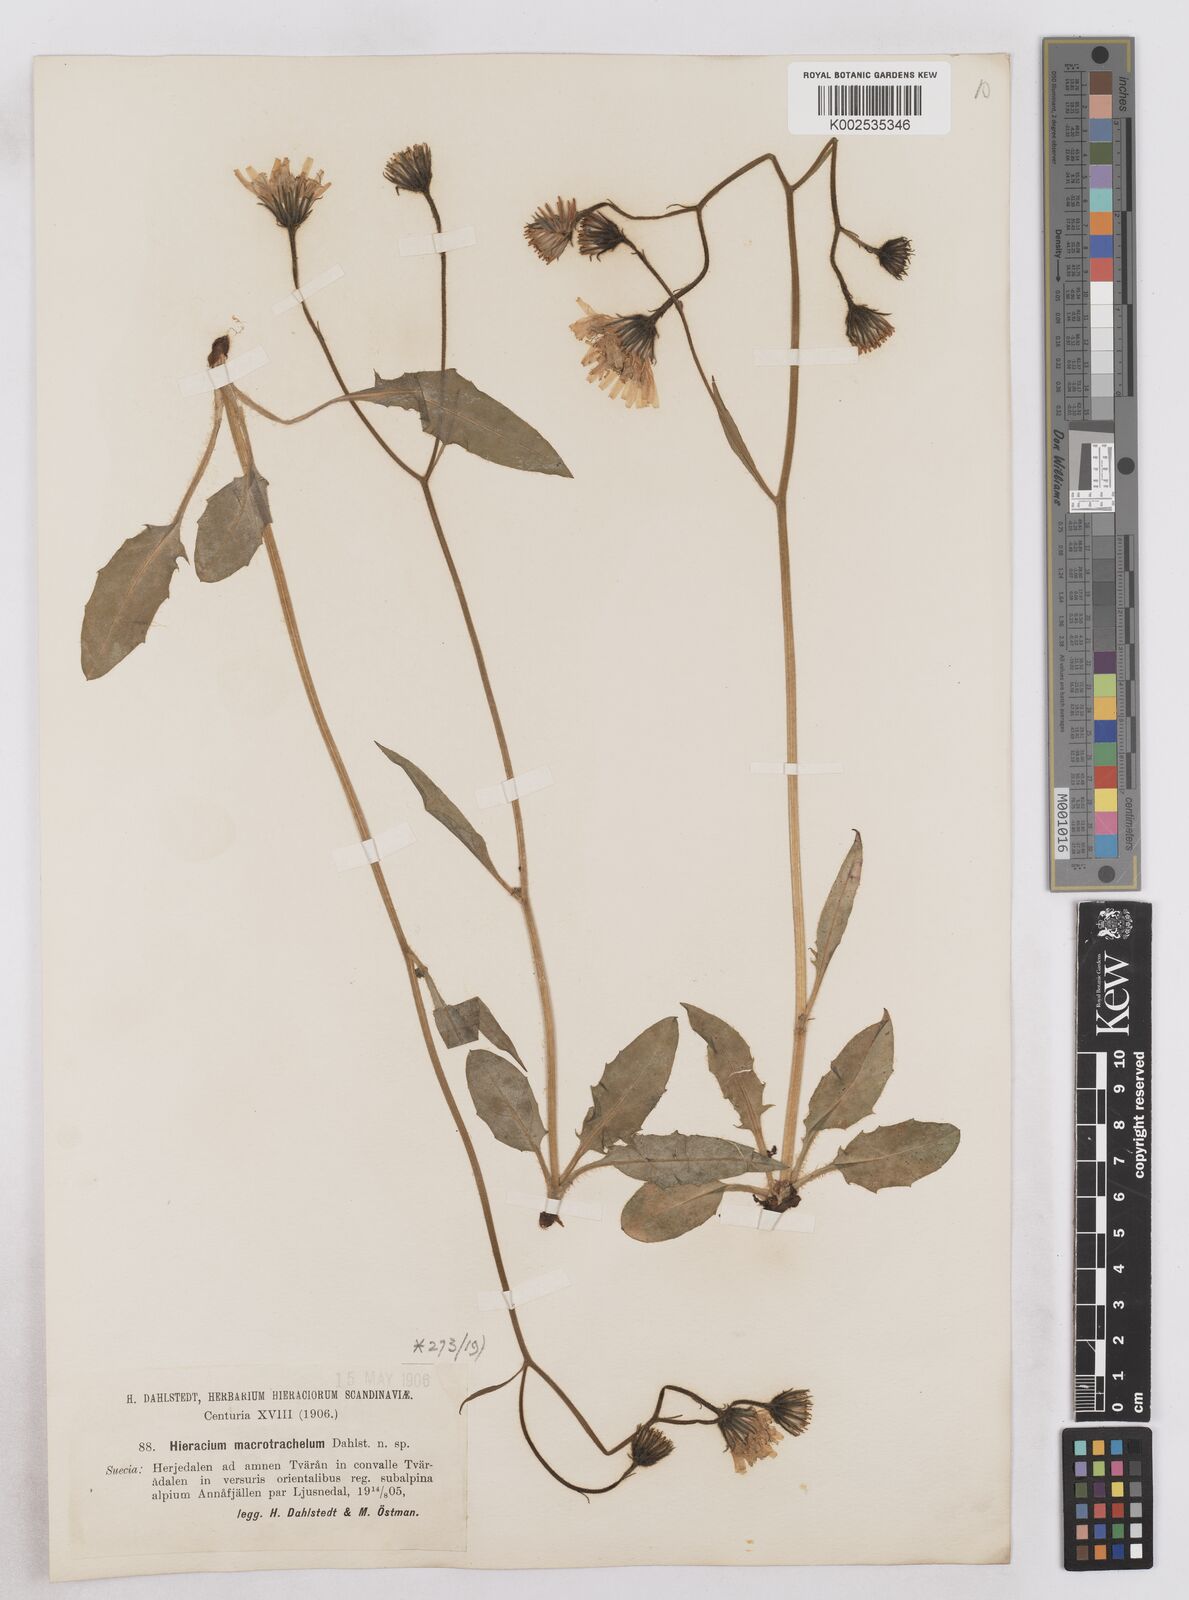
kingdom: Plantae
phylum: Tracheophyta
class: Magnoliopsida
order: Asterales
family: Asteraceae
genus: Hieracium
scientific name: Hieracium conspurcans
